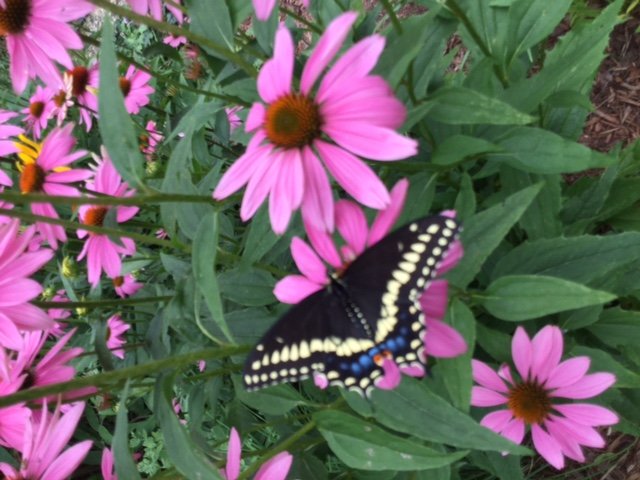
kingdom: Animalia
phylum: Arthropoda
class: Insecta
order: Lepidoptera
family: Papilionidae
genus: Papilio
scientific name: Papilio polyxenes
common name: Black Swallowtail
